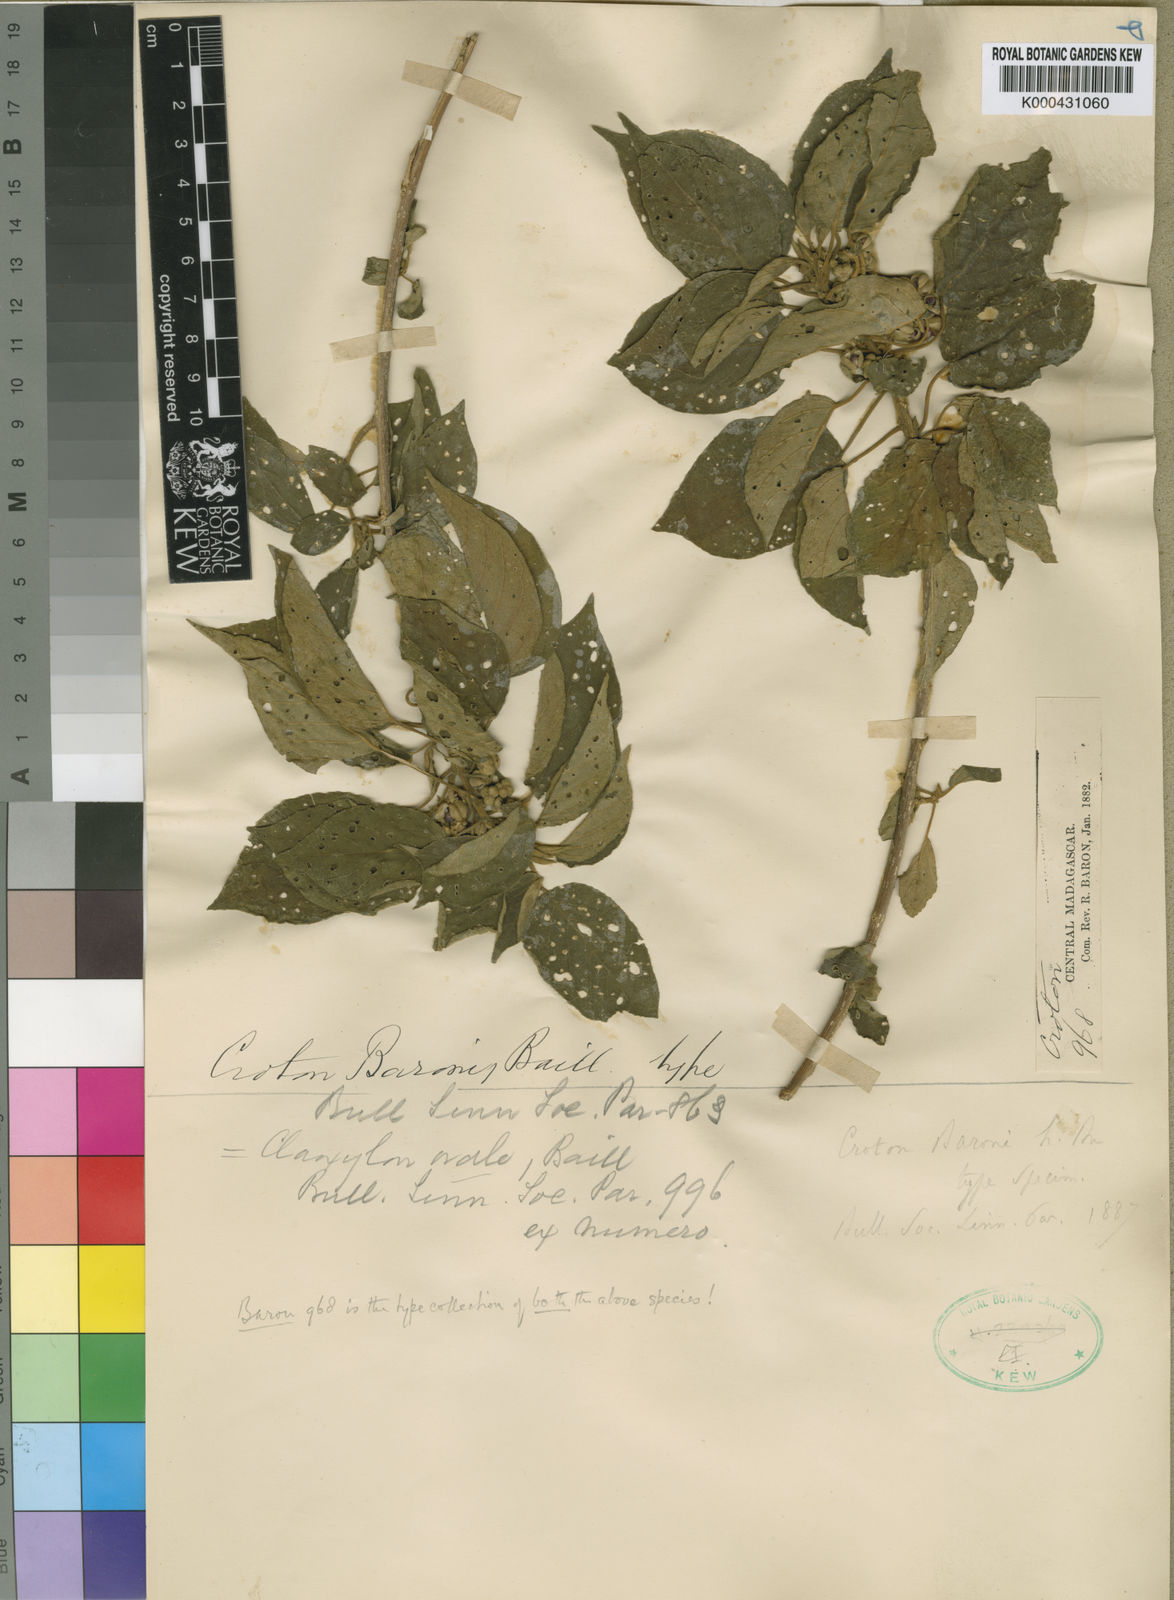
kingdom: Plantae
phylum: Tracheophyta
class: Magnoliopsida
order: Malpighiales
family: Euphorbiaceae
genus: Lobanilia
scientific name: Lobanilia ovalis
